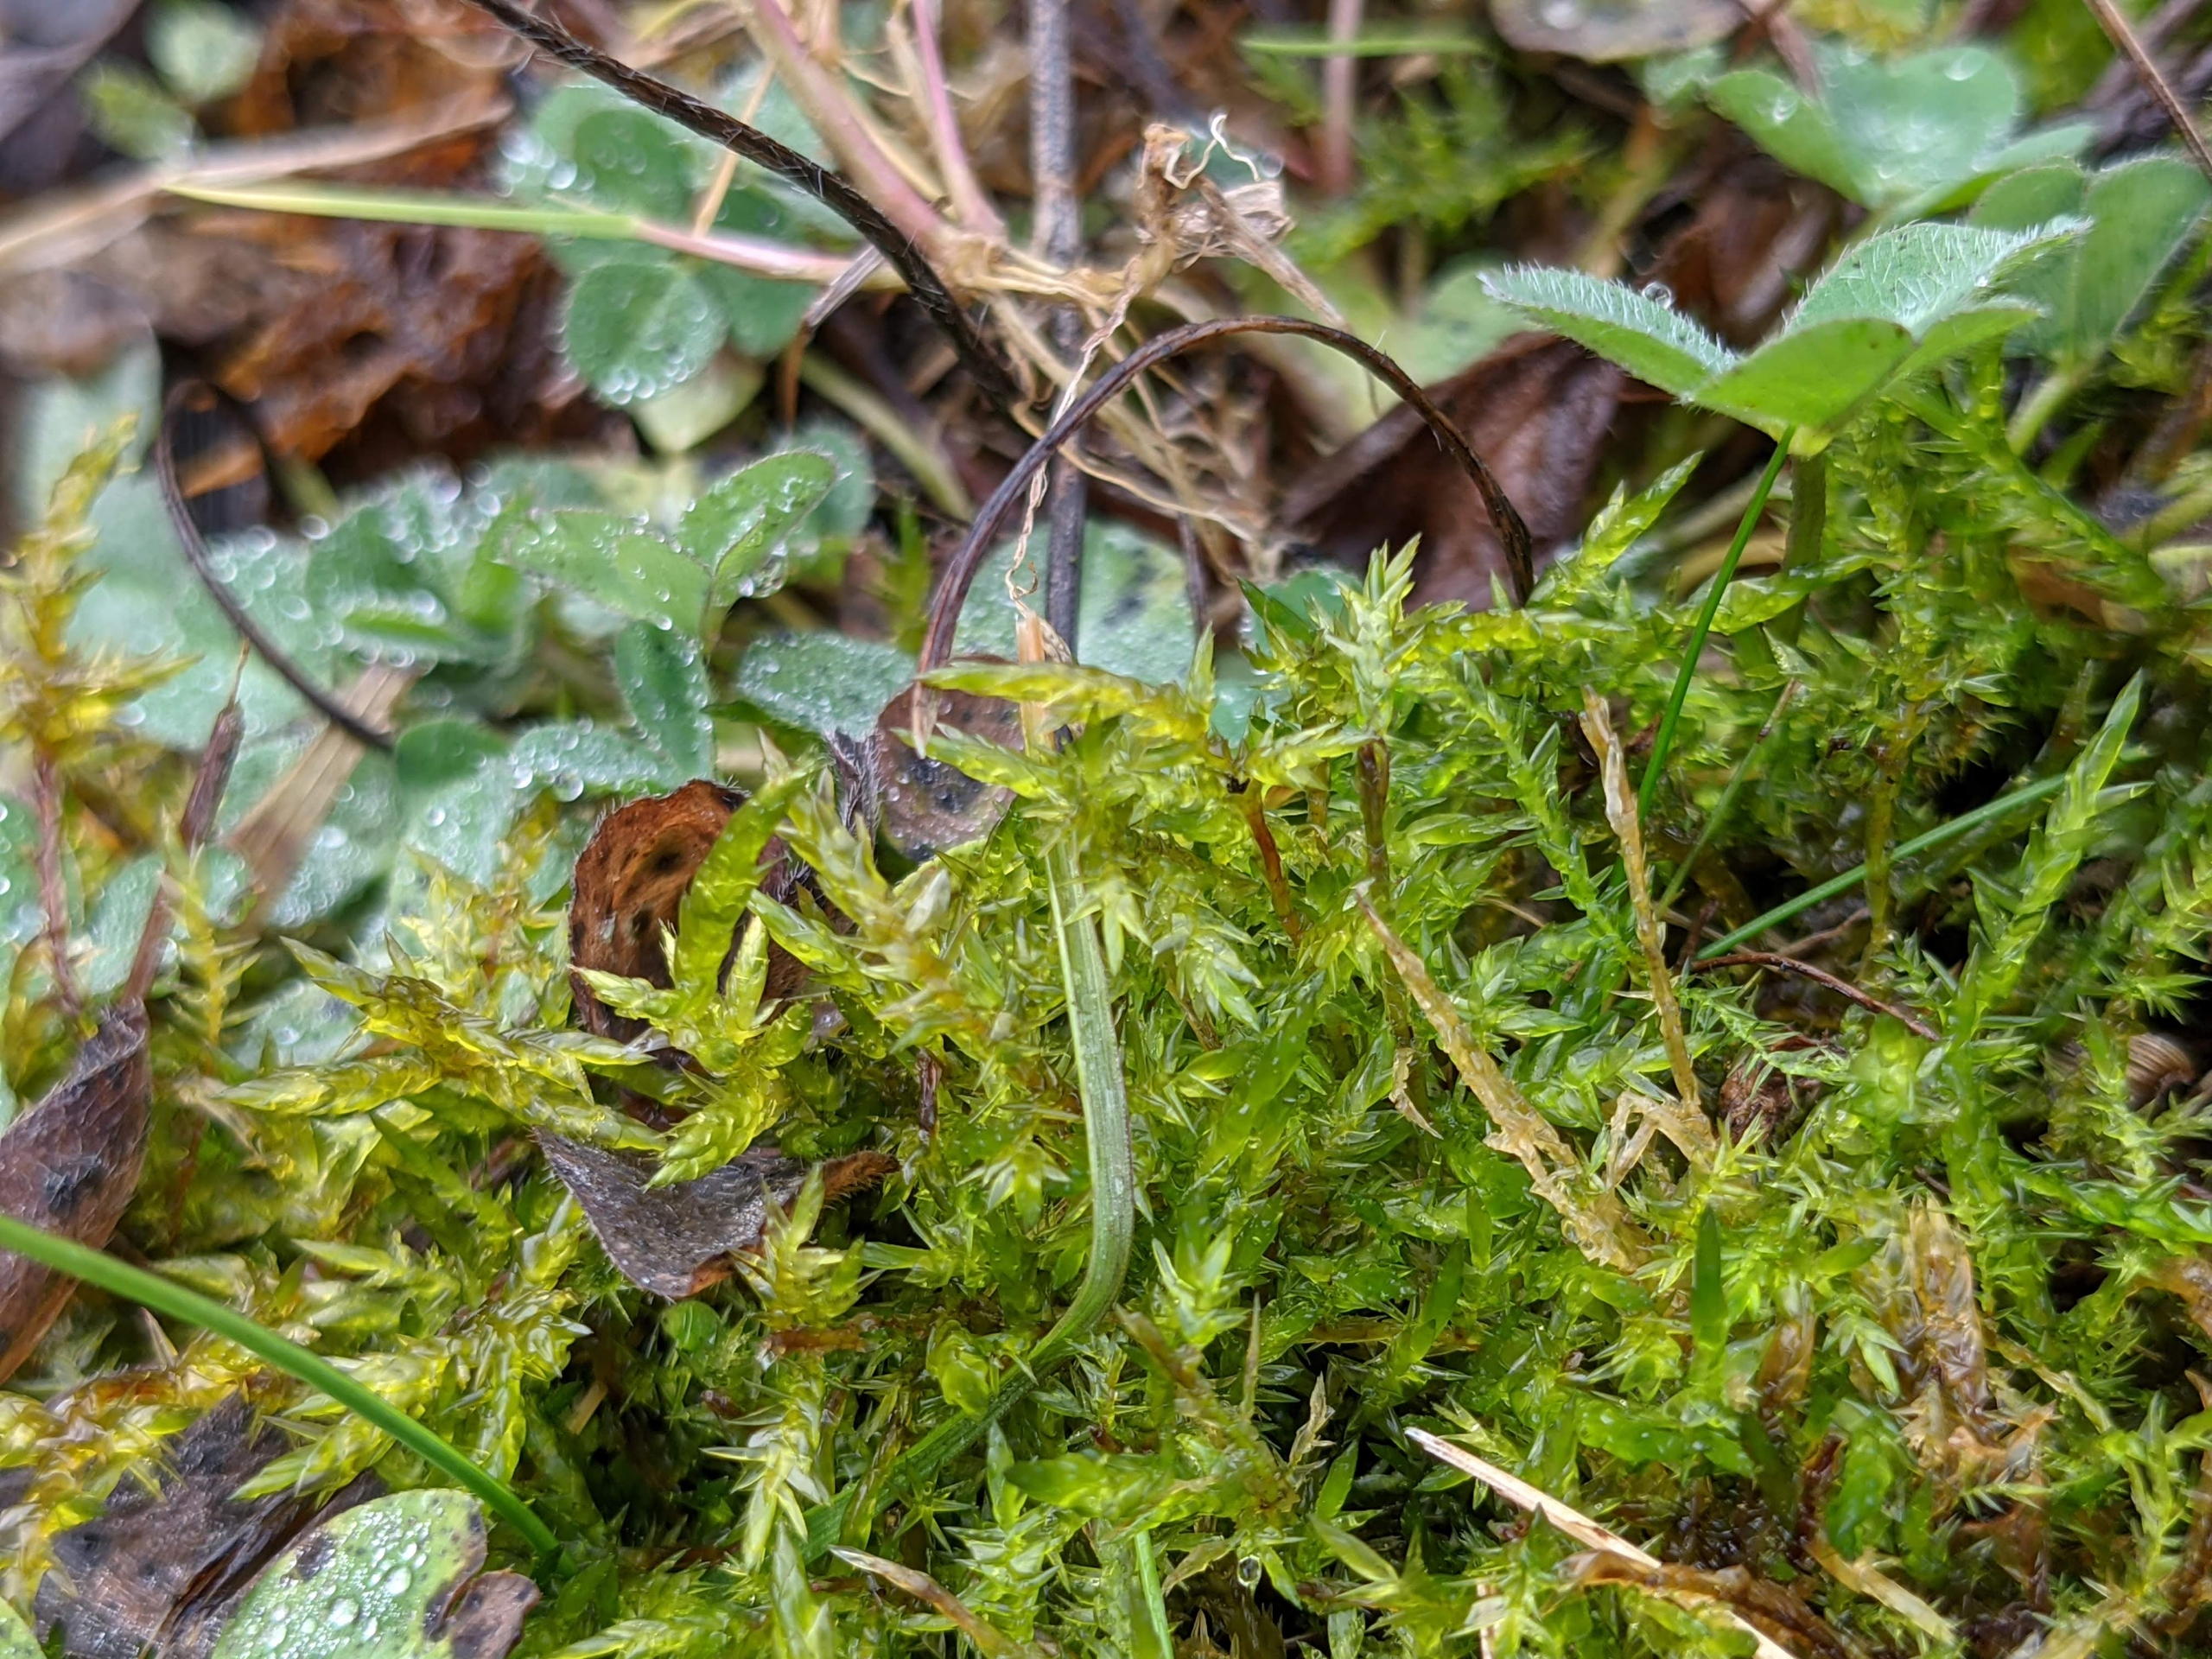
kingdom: Plantae
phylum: Bryophyta
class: Bryopsida
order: Hypnales
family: Pylaisiaceae
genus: Calliergonella
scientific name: Calliergonella cuspidata
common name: Spids spydmos
